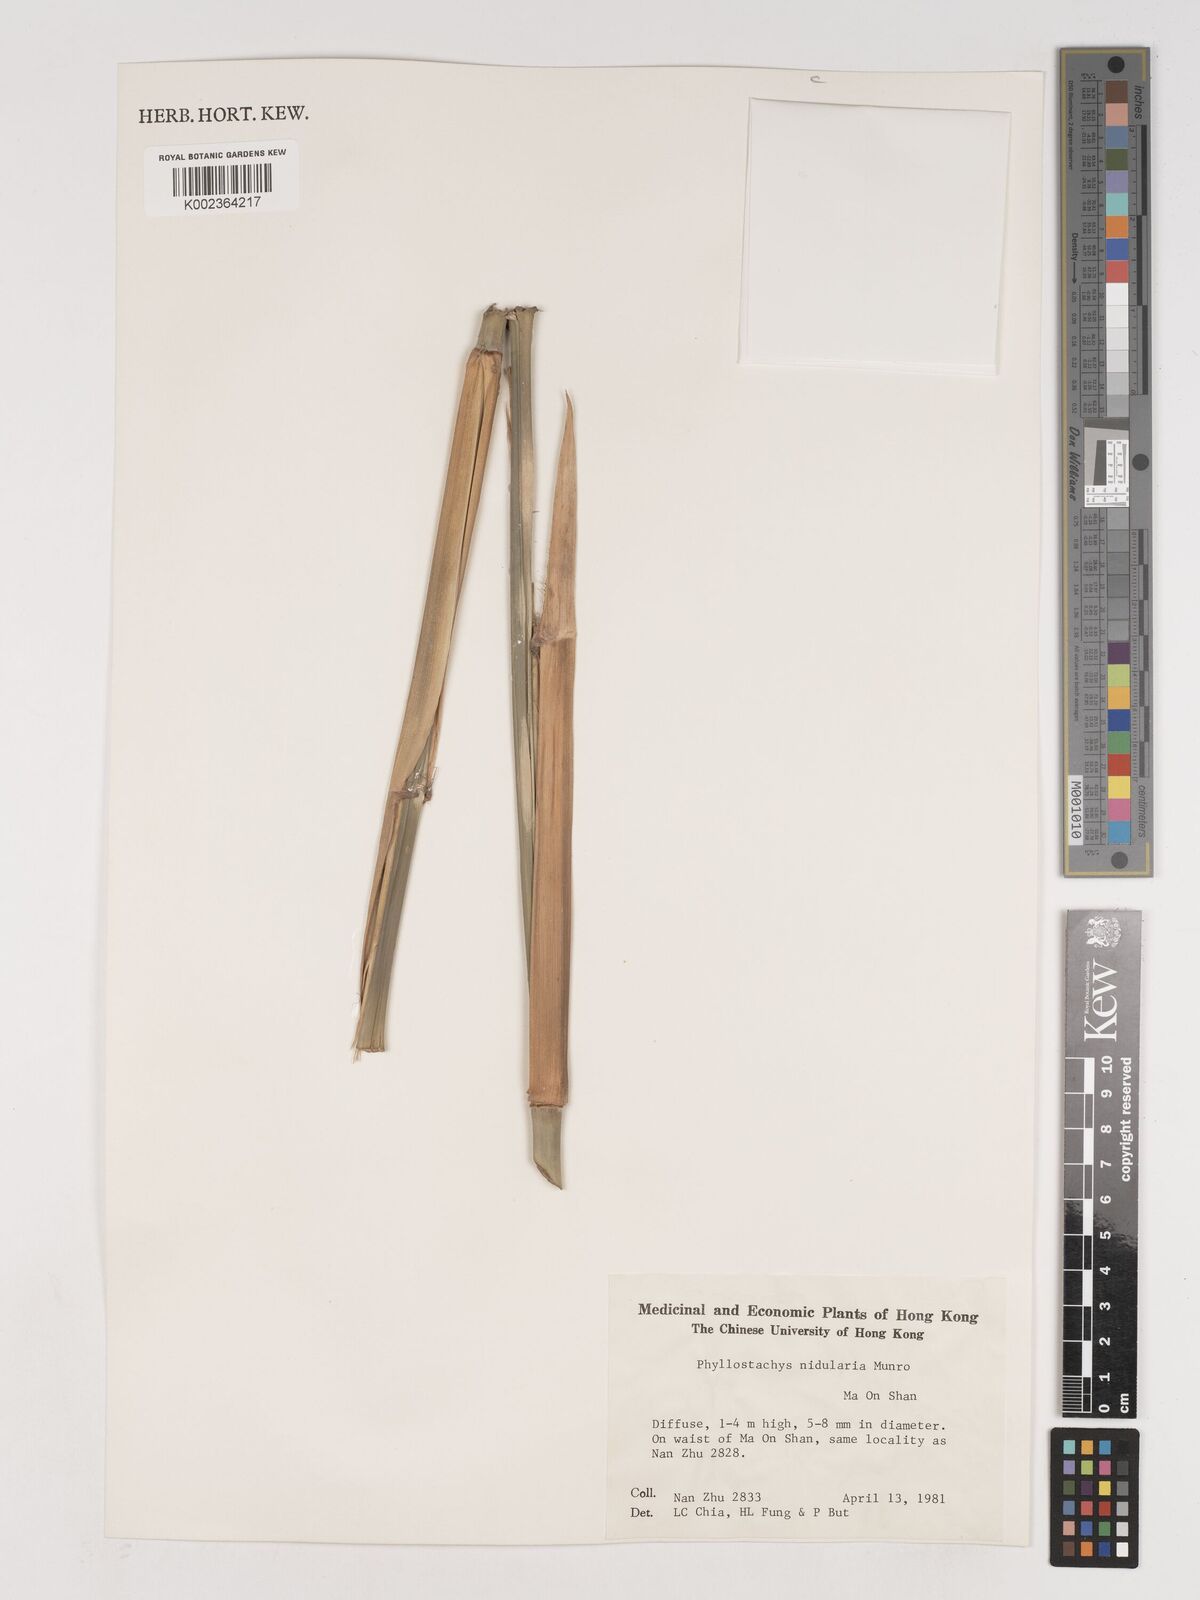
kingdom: Plantae
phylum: Tracheophyta
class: Liliopsida
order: Poales
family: Poaceae
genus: Phyllostachys
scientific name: Phyllostachys nidularia
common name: Broom bamboo
